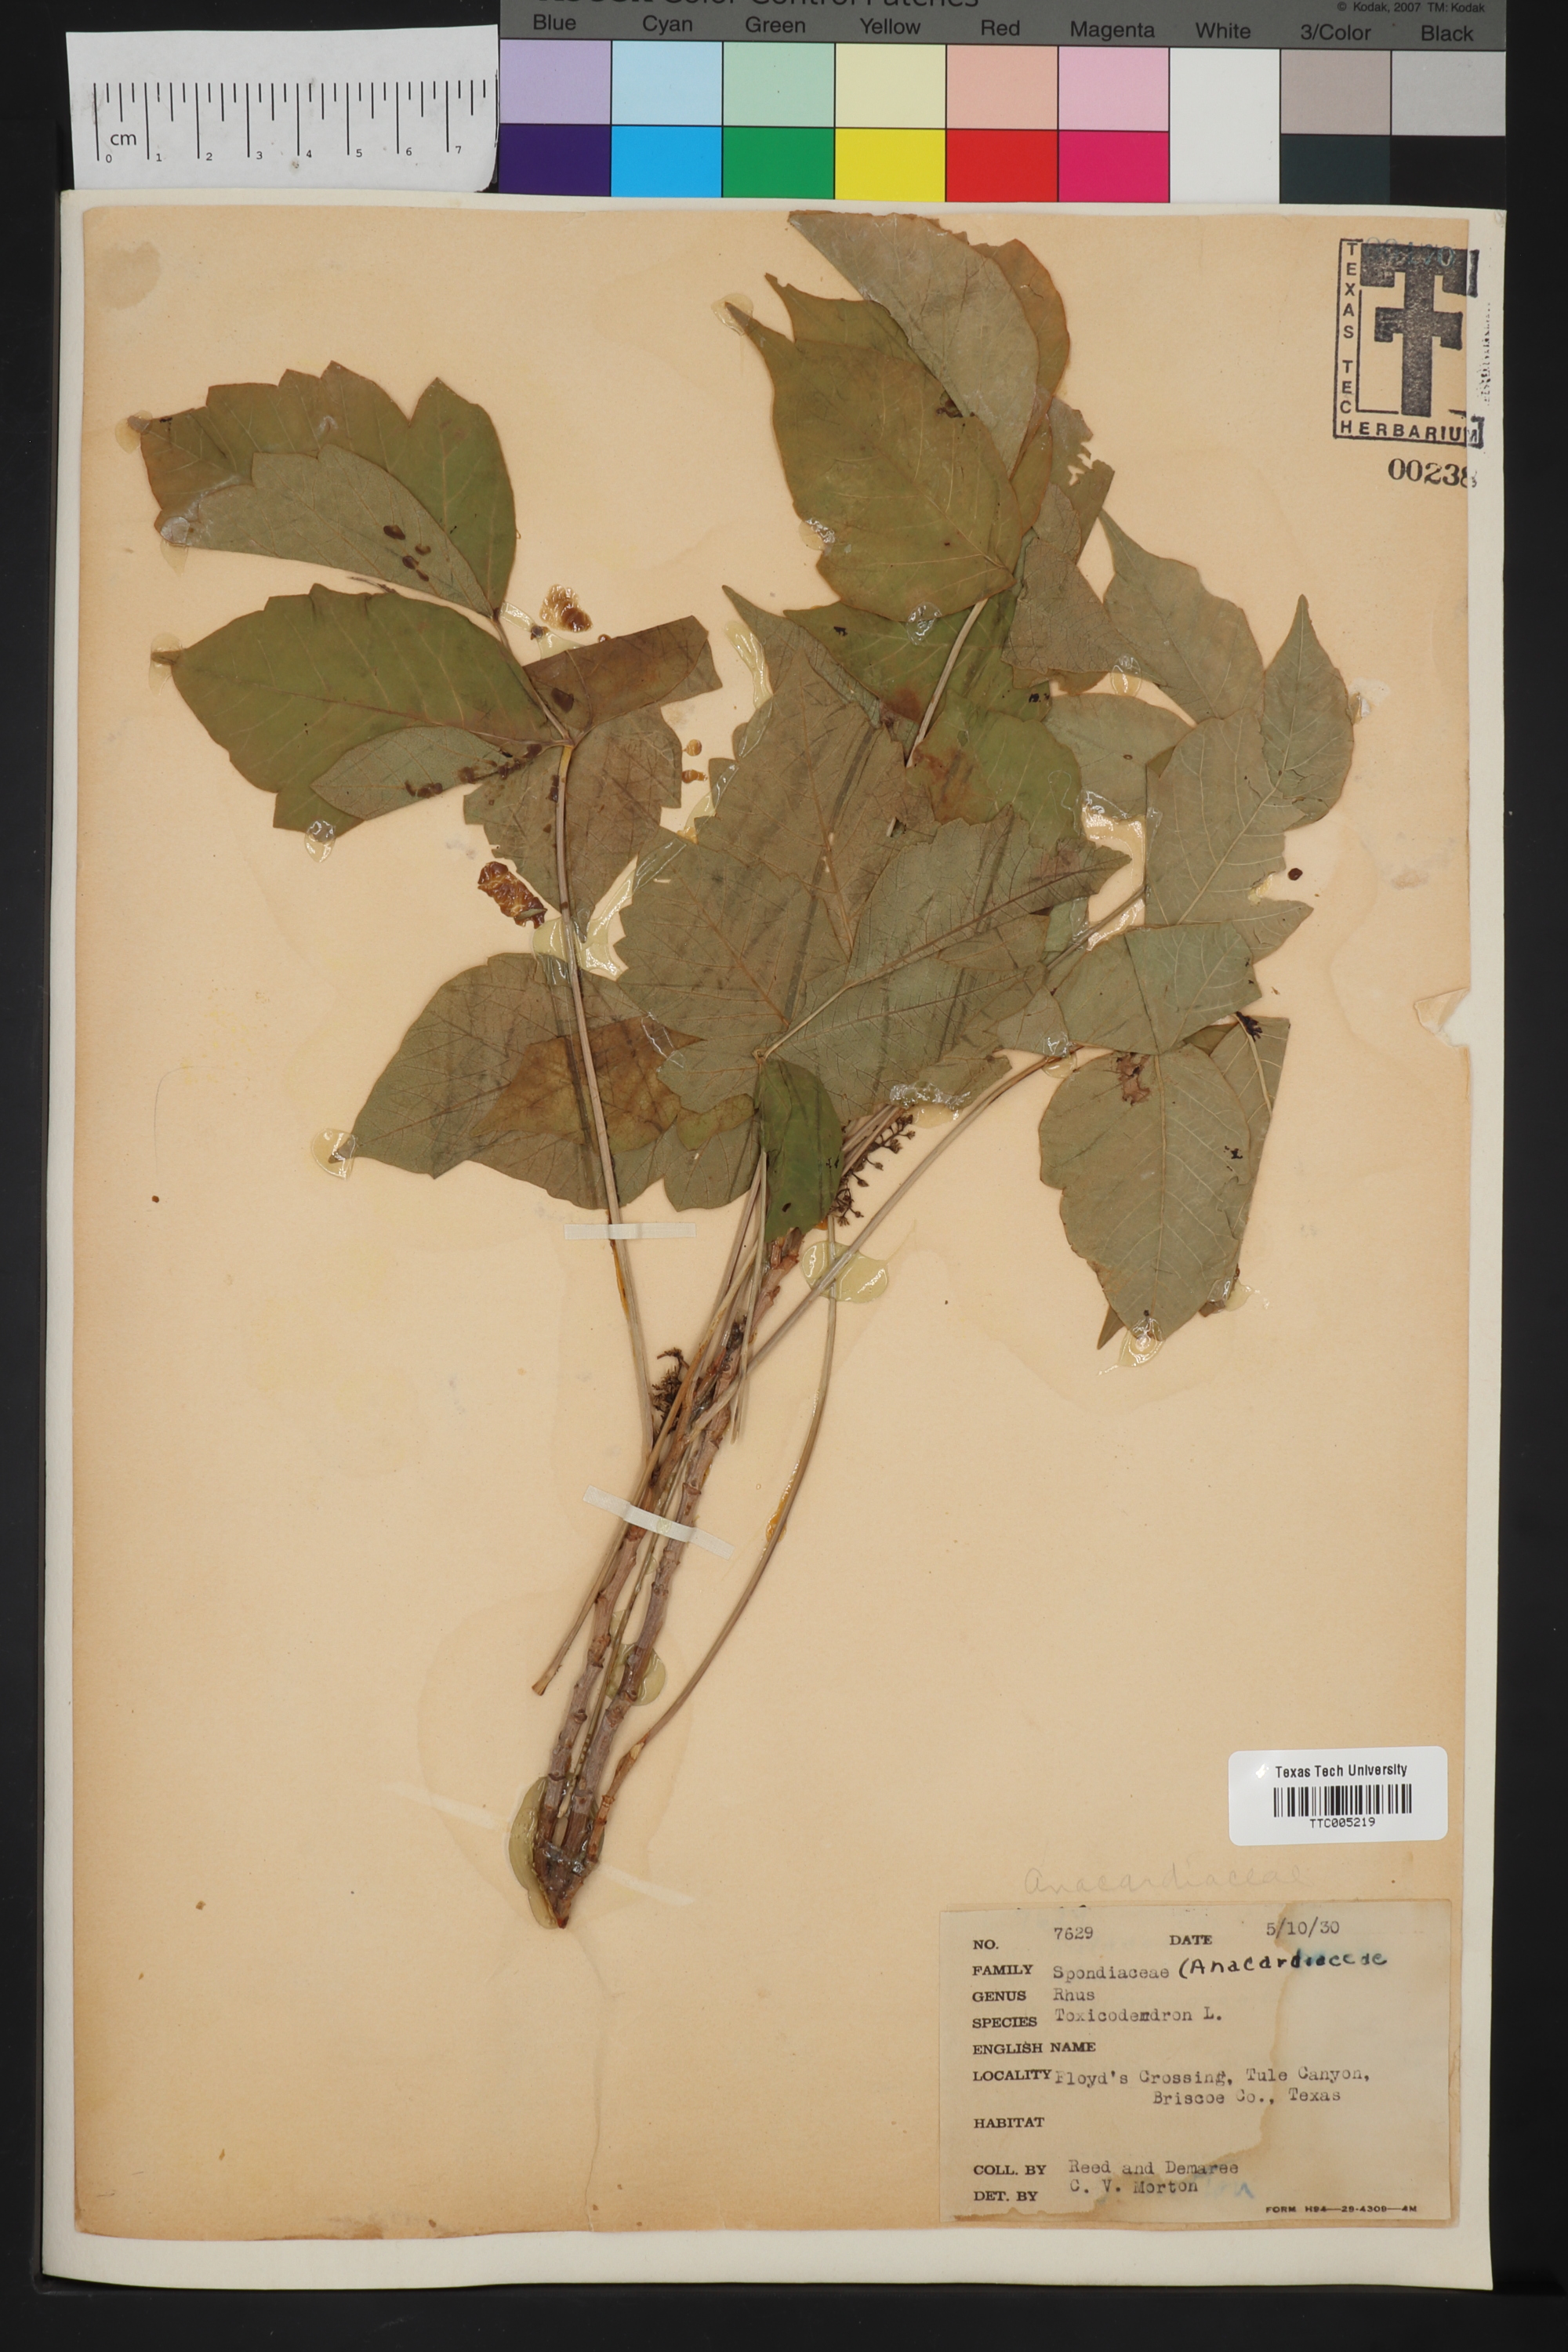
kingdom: Plantae
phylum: Tracheophyta
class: Magnoliopsida
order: Sapindales
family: Anacardiaceae
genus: Toxicodendron
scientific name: Toxicodendron
